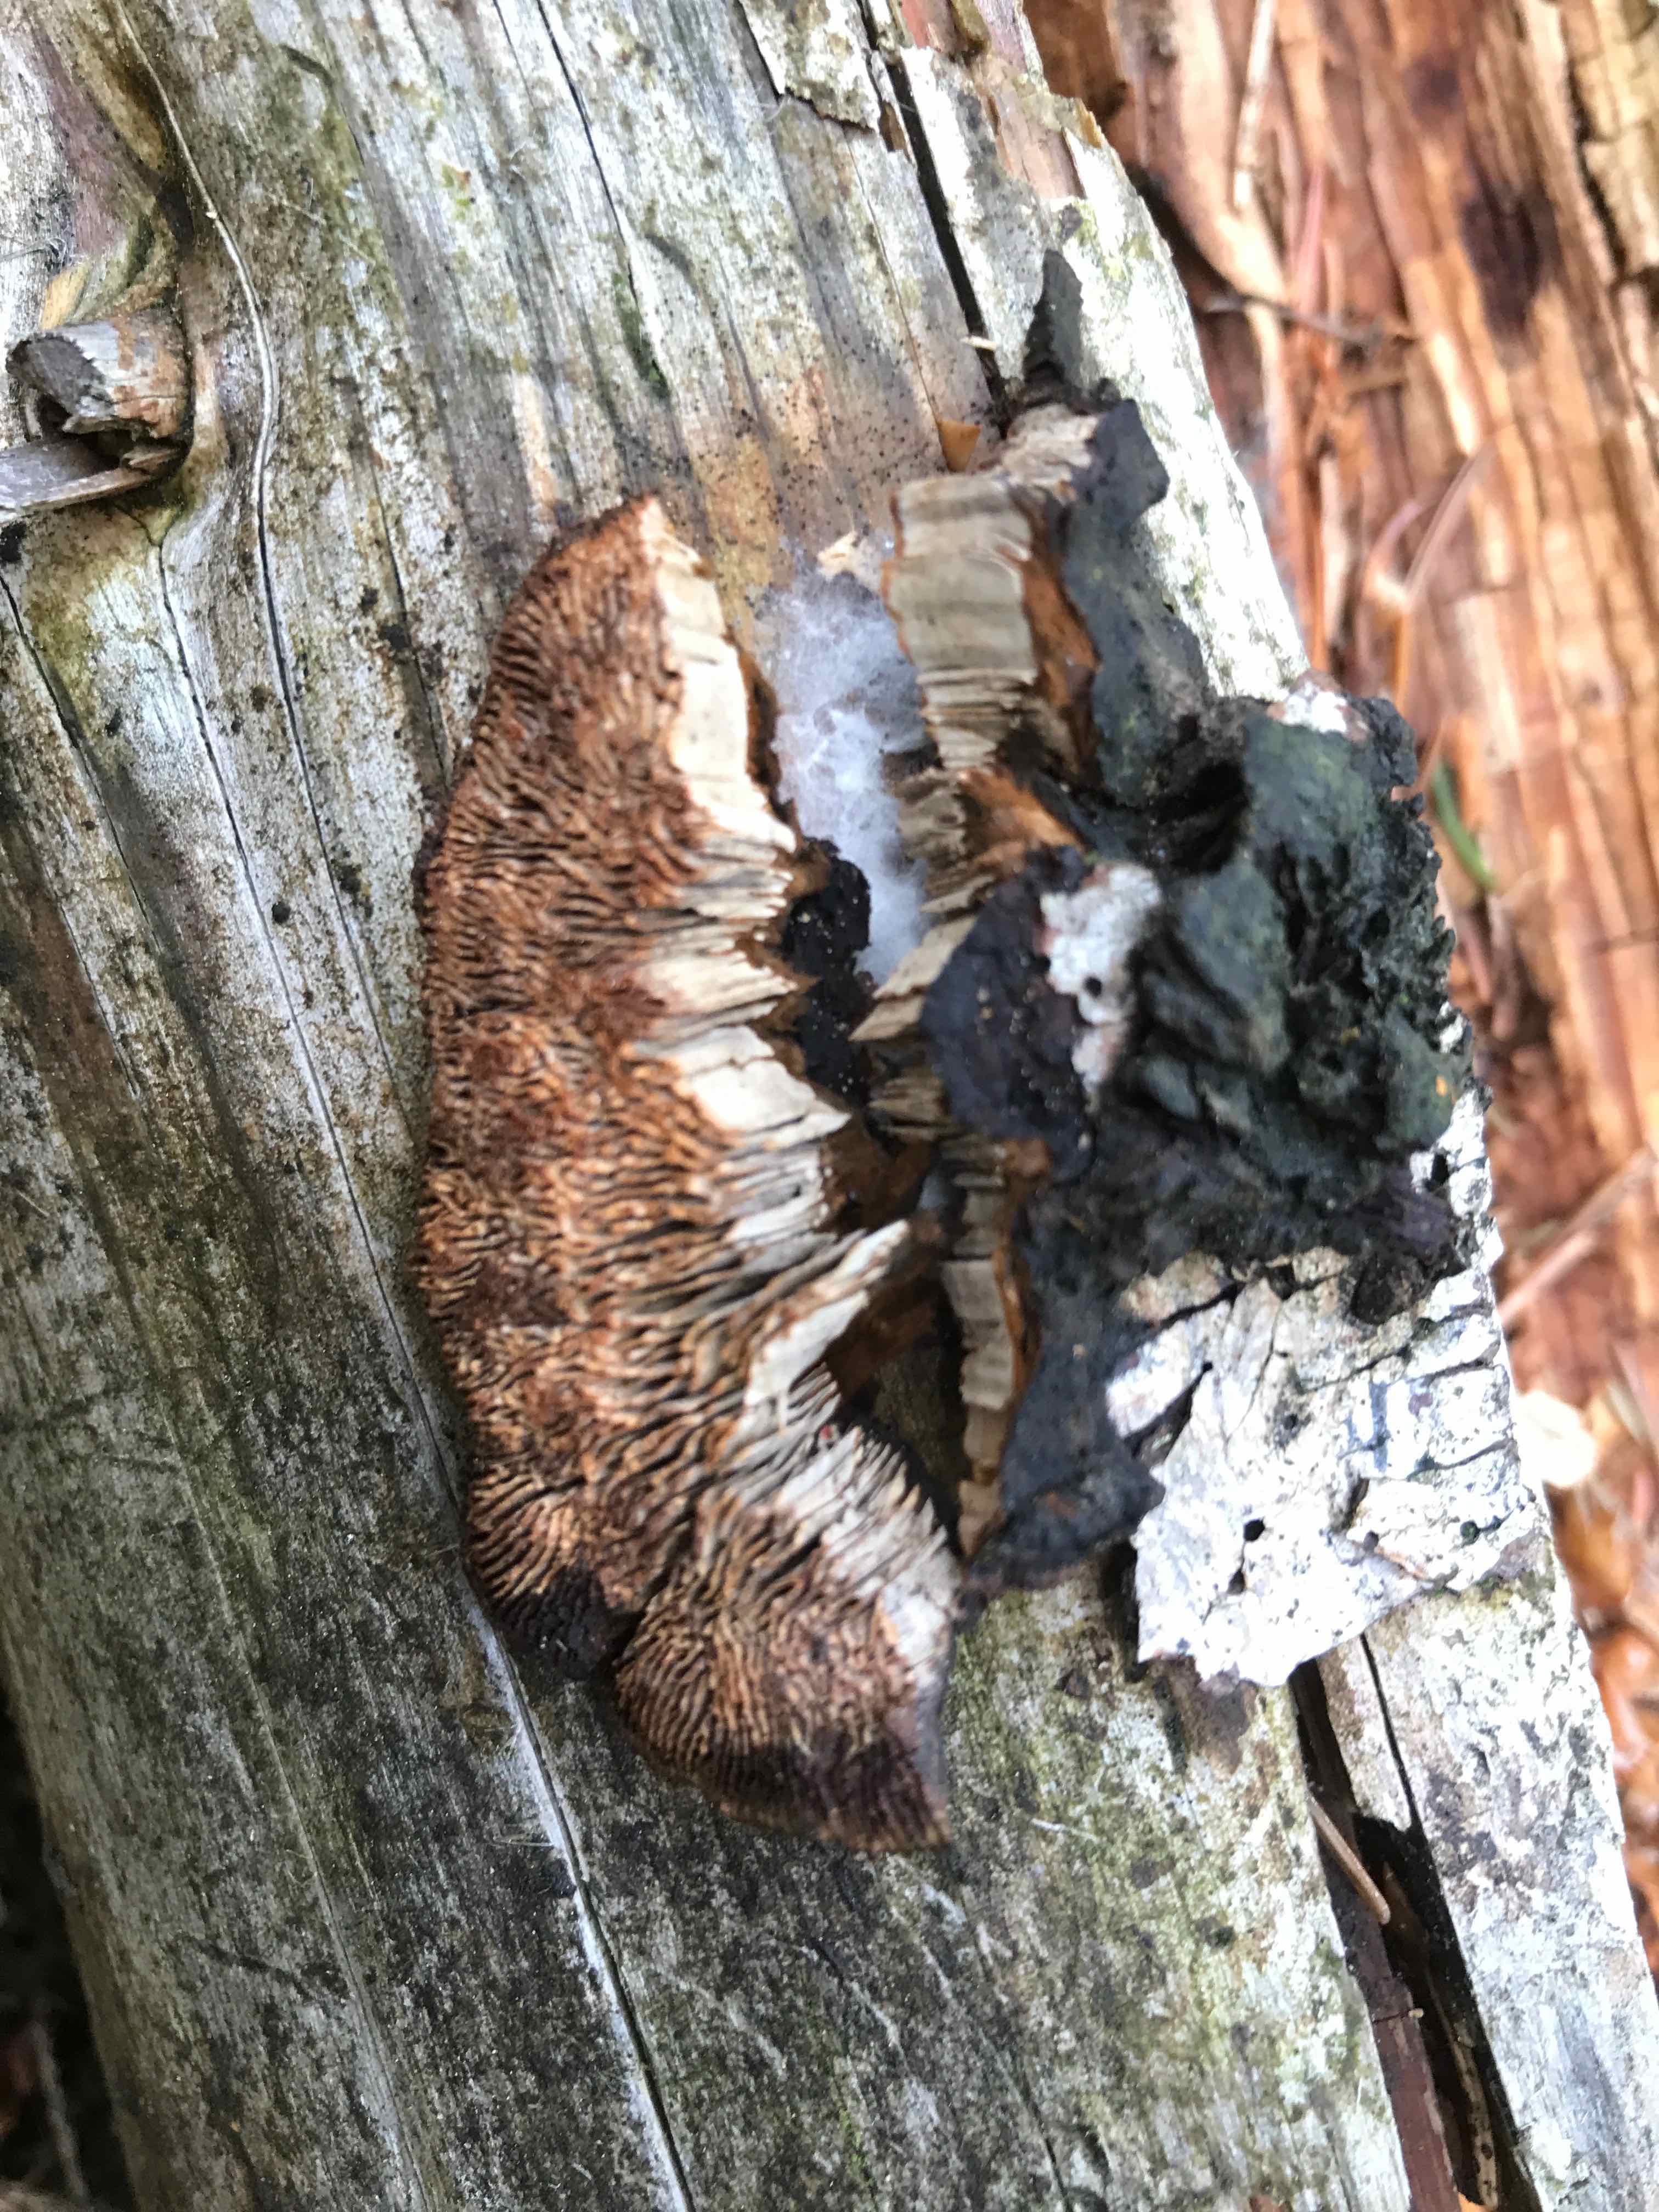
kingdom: Fungi
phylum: Basidiomycota
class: Agaricomycetes
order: Gloeophyllales
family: Gloeophyllaceae
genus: Gloeophyllum
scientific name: Gloeophyllum sepiarium
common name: fyrre-korkhat
